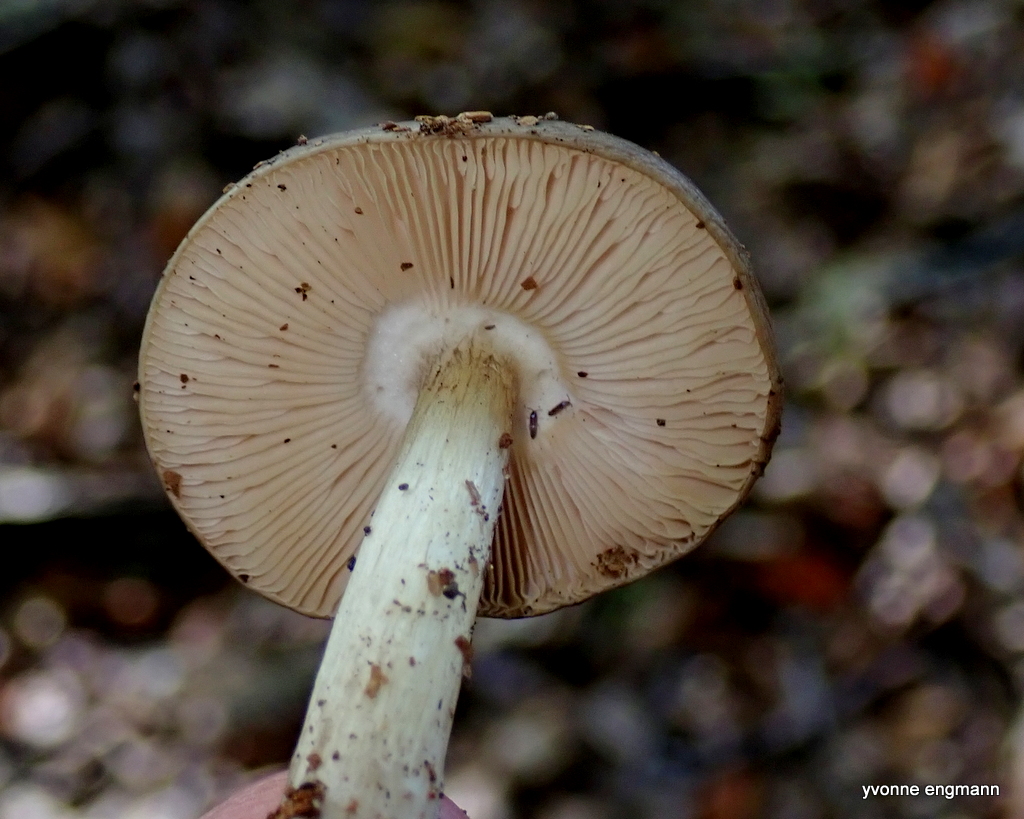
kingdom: Fungi
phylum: Basidiomycota
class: Agaricomycetes
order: Agaricales
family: Pluteaceae
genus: Pluteus
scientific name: Pluteus cervinus
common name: sodfarvet skærmhat
